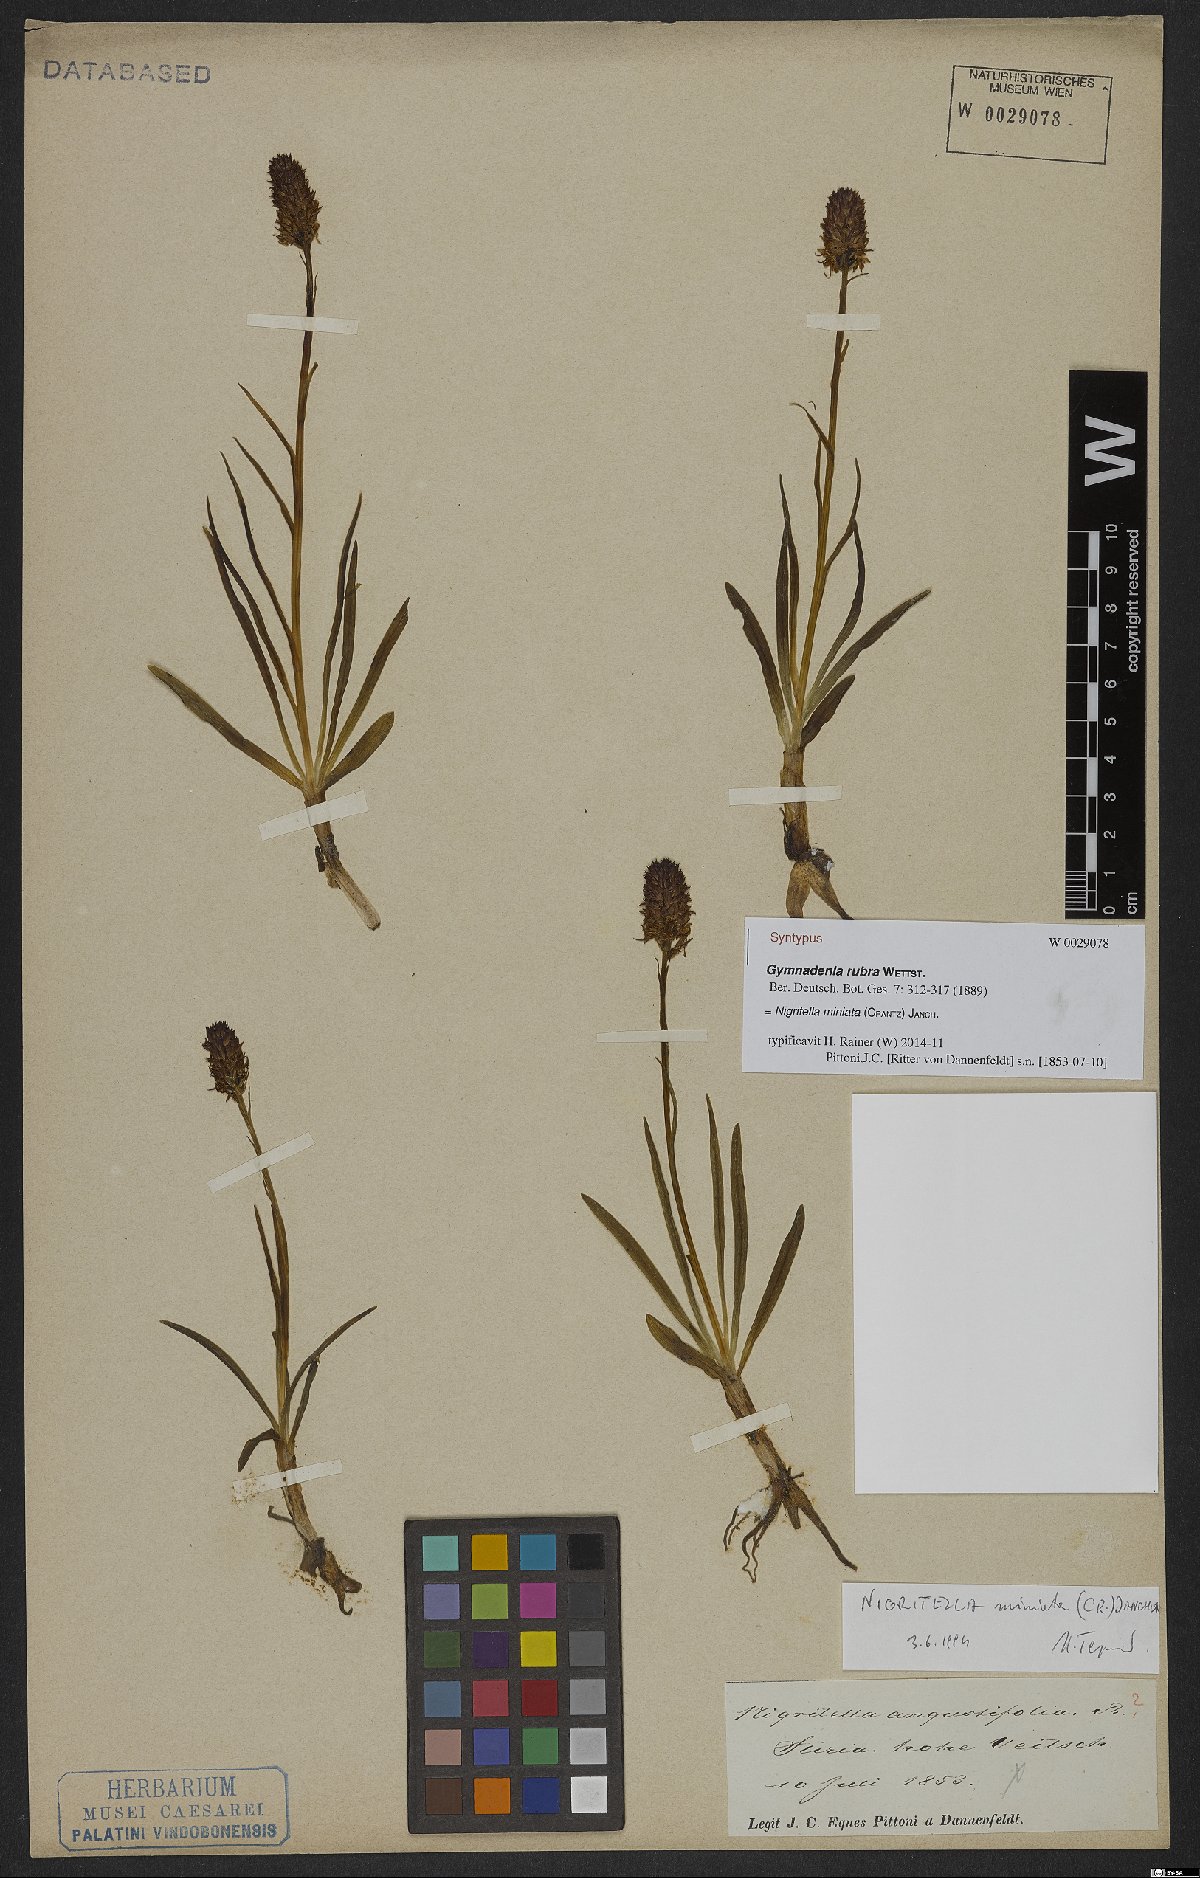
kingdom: Plantae
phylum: Tracheophyta
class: Liliopsida
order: Asparagales
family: Orchidaceae
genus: Gymnadenia
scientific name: Gymnadenia miniata
